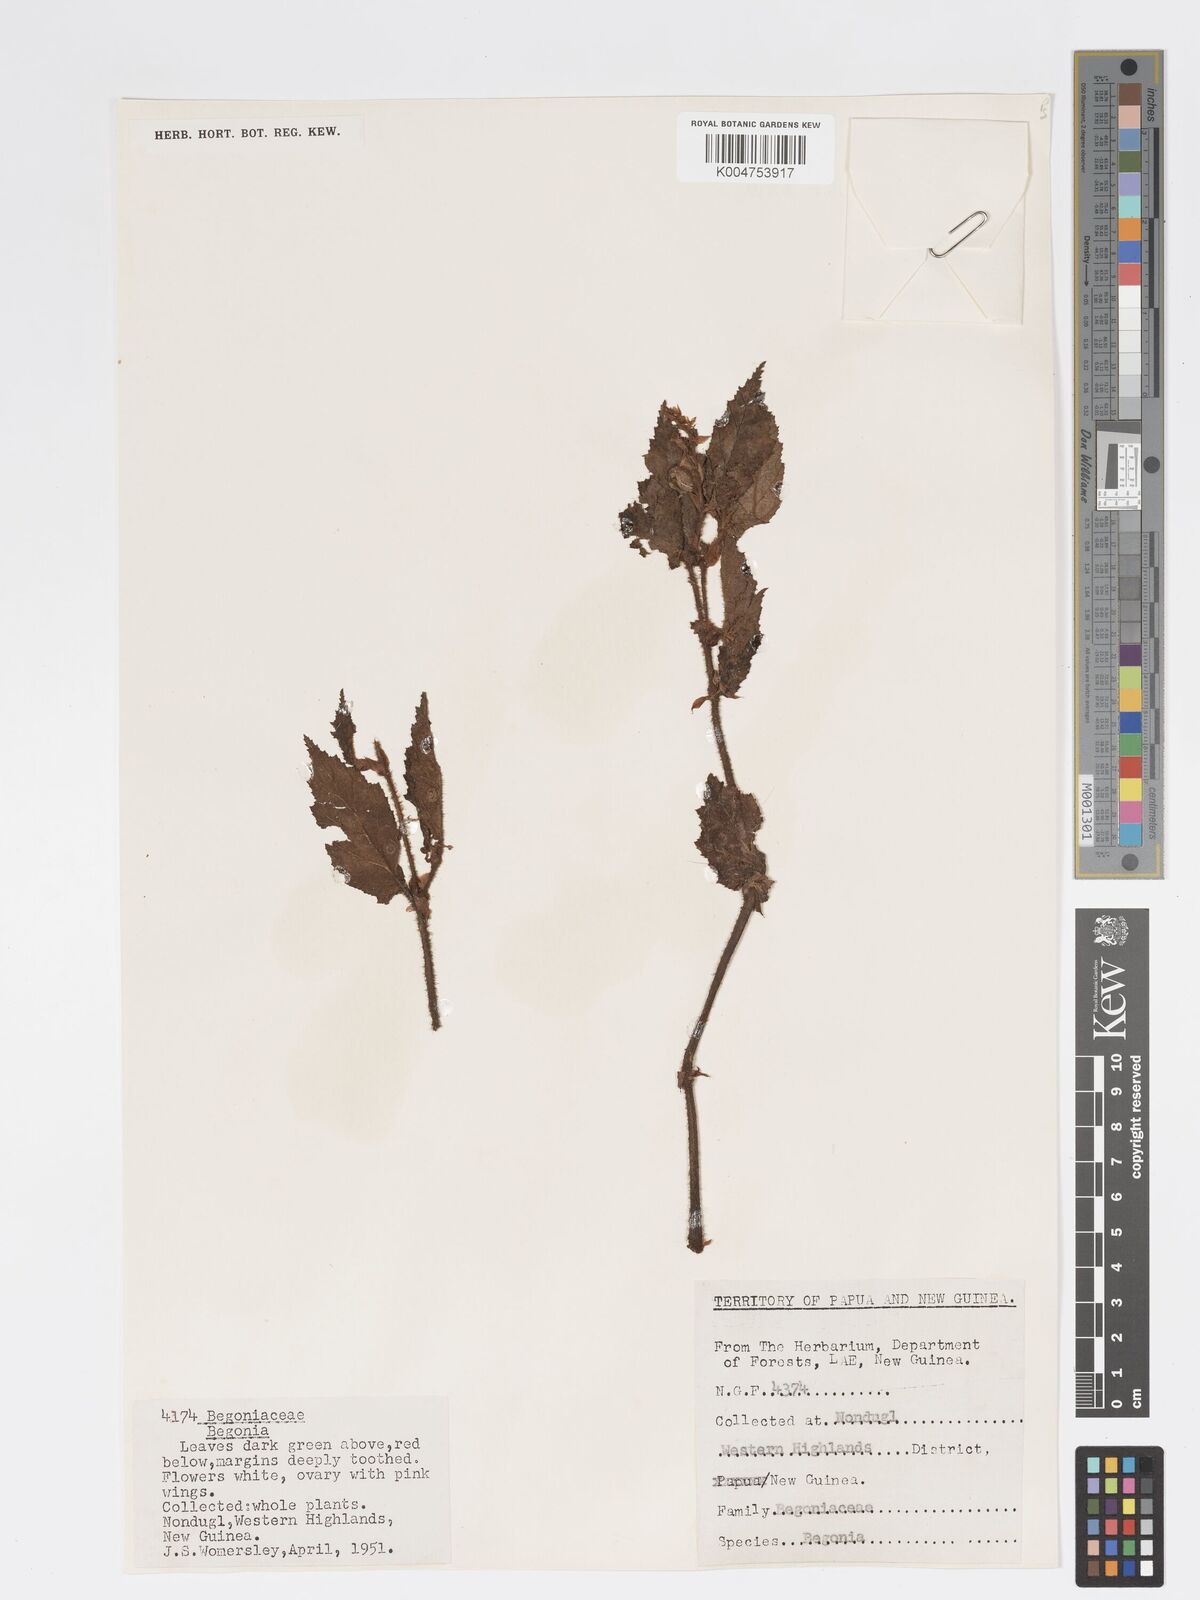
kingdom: Plantae
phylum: Tracheophyta
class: Magnoliopsida
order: Cucurbitales
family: Begoniaceae
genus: Begonia
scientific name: Begonia fruticella
